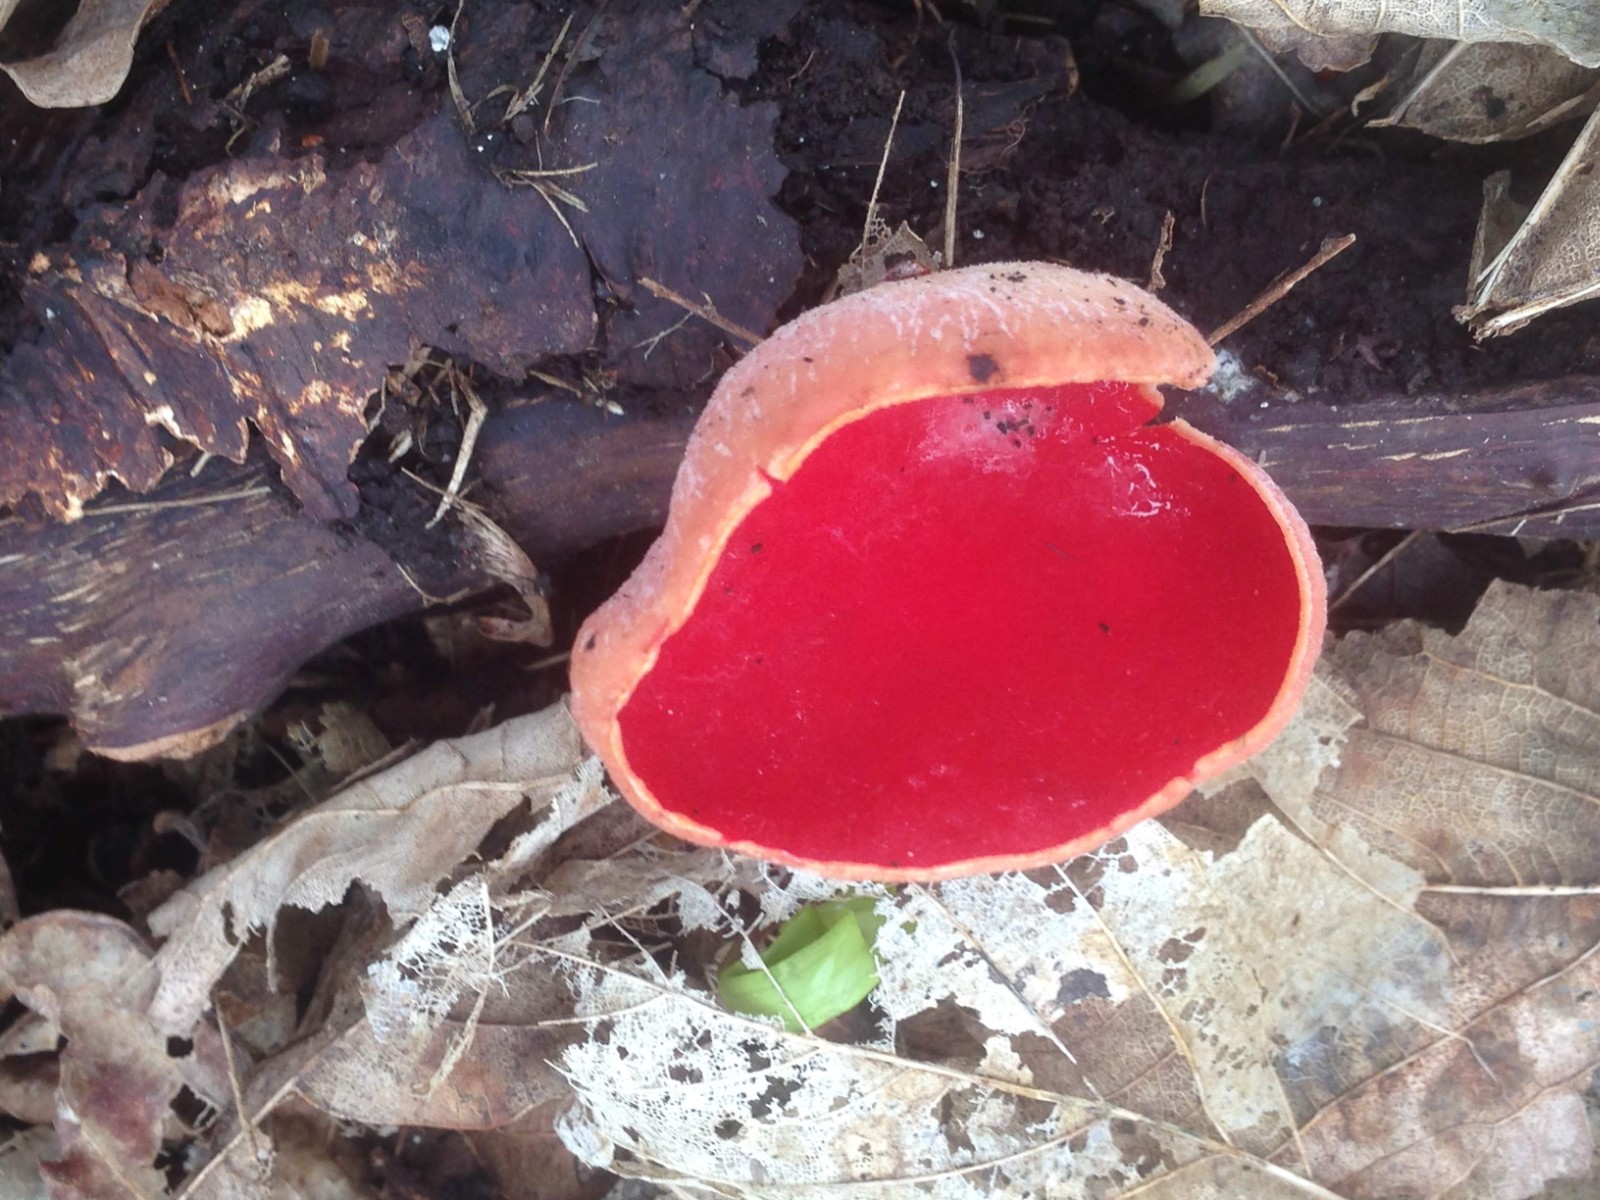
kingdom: Fungi
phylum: Ascomycota
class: Pezizomycetes
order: Pezizales
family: Sarcoscyphaceae
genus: Sarcoscypha
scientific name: Sarcoscypha austriaca
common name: krølhåret pragtbæger
